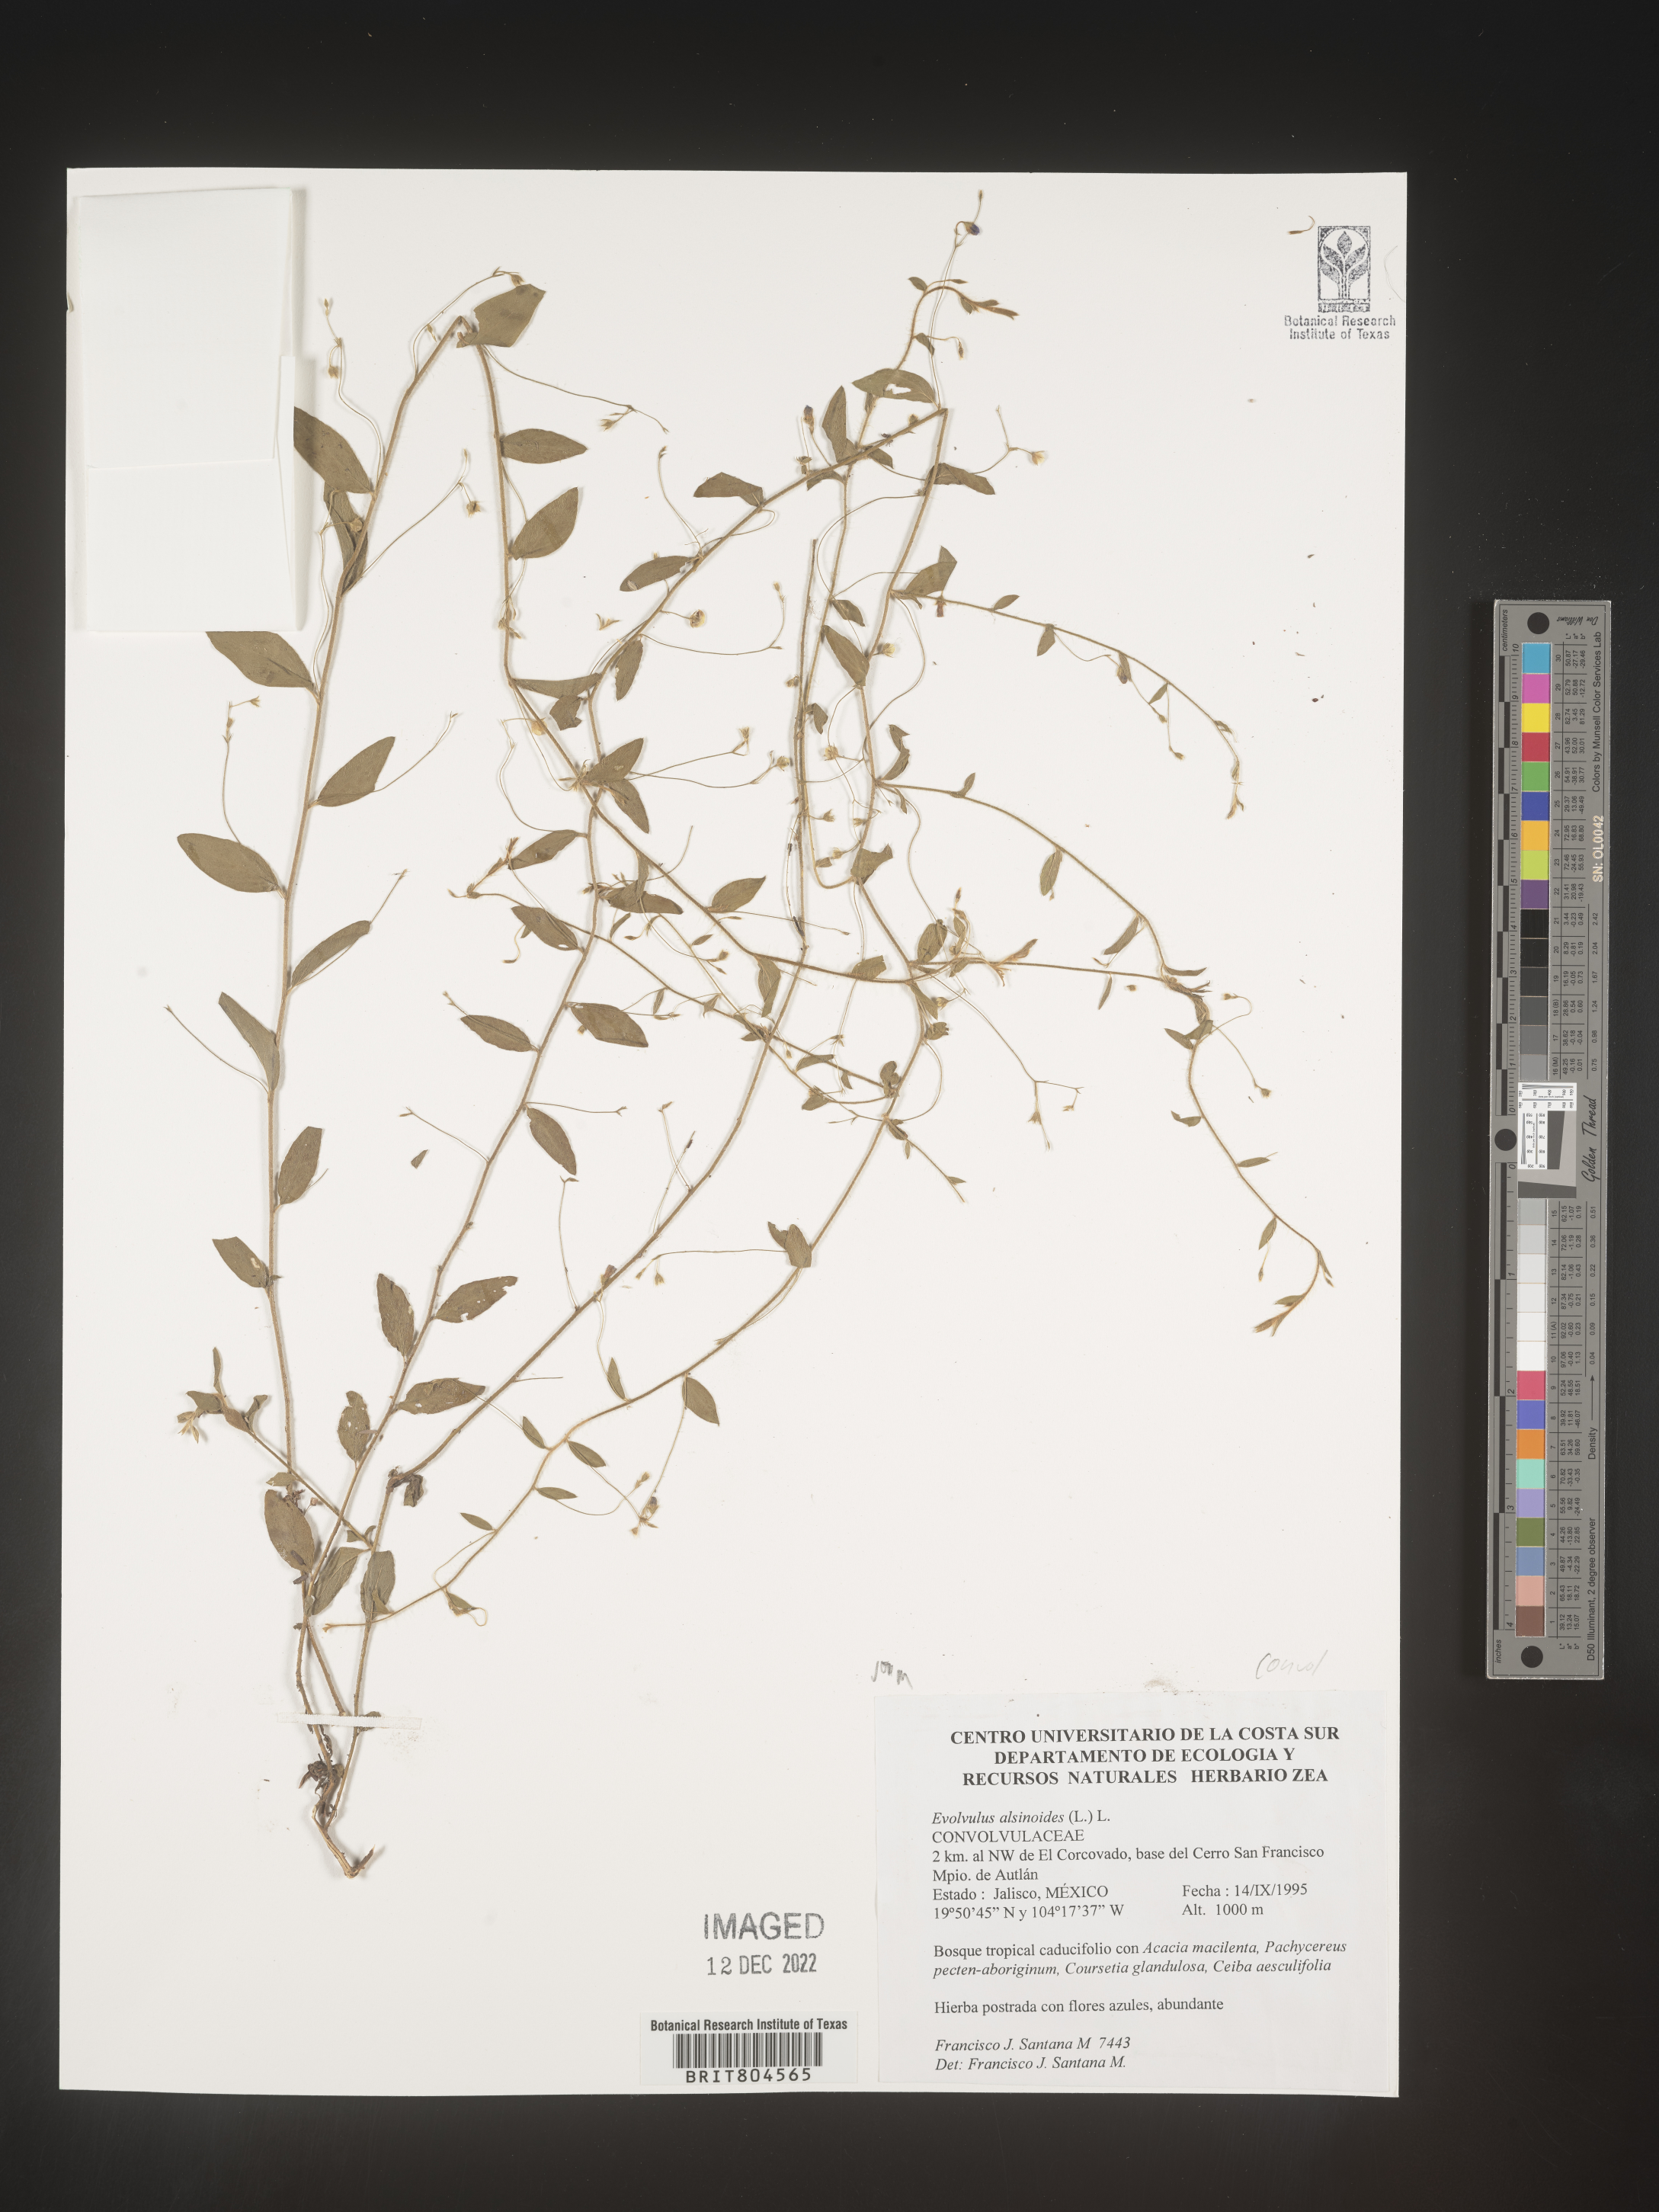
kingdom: Plantae
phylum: Tracheophyta
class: Magnoliopsida
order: Solanales
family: Convolvulaceae
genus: Evolvulus
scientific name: Evolvulus
